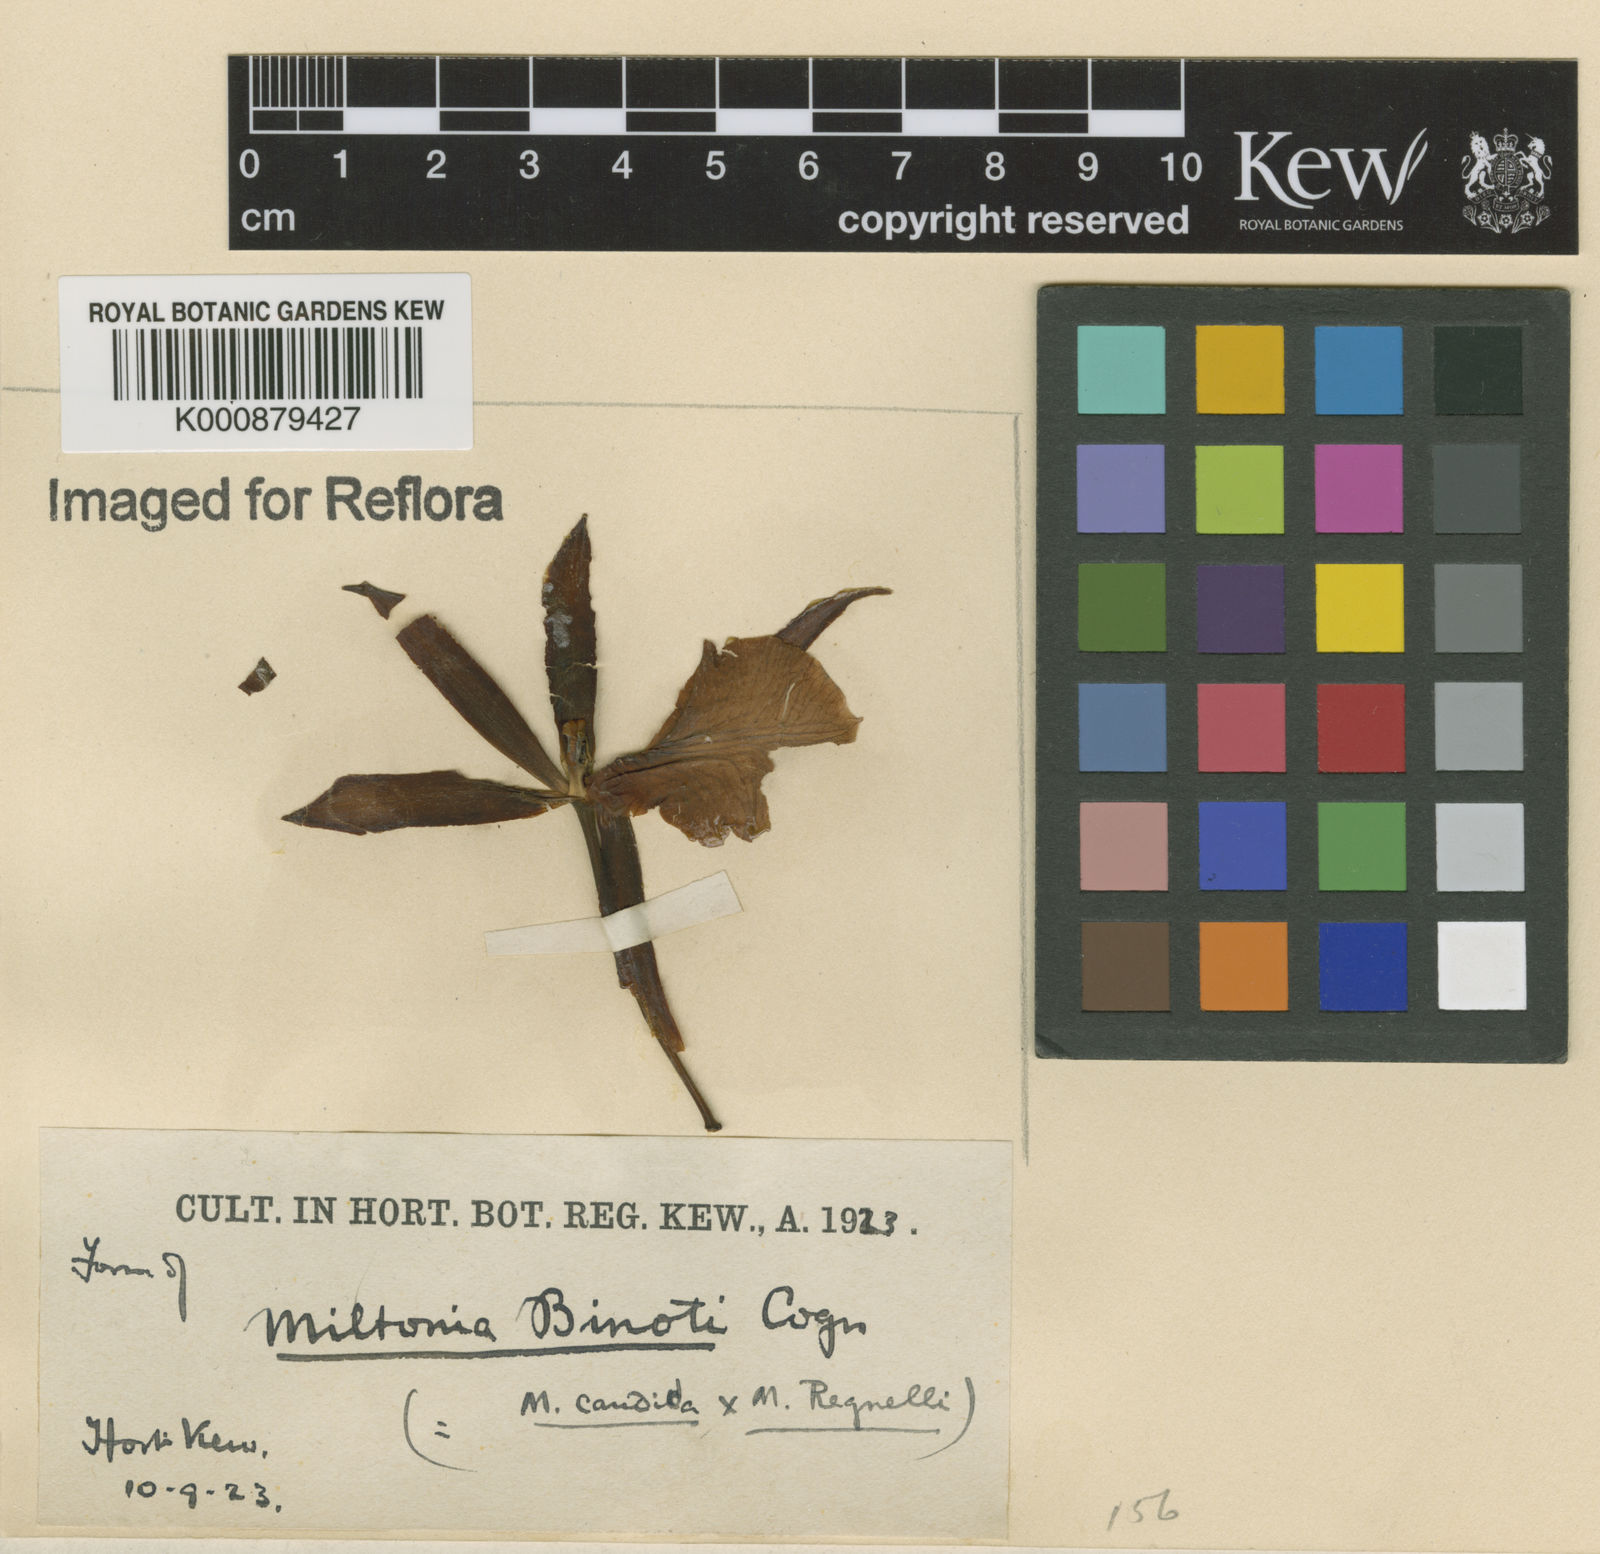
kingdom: Plantae
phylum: Tracheophyta
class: Liliopsida
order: Asparagales
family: Orchidaceae
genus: Miltonia
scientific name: Miltonia binotii
